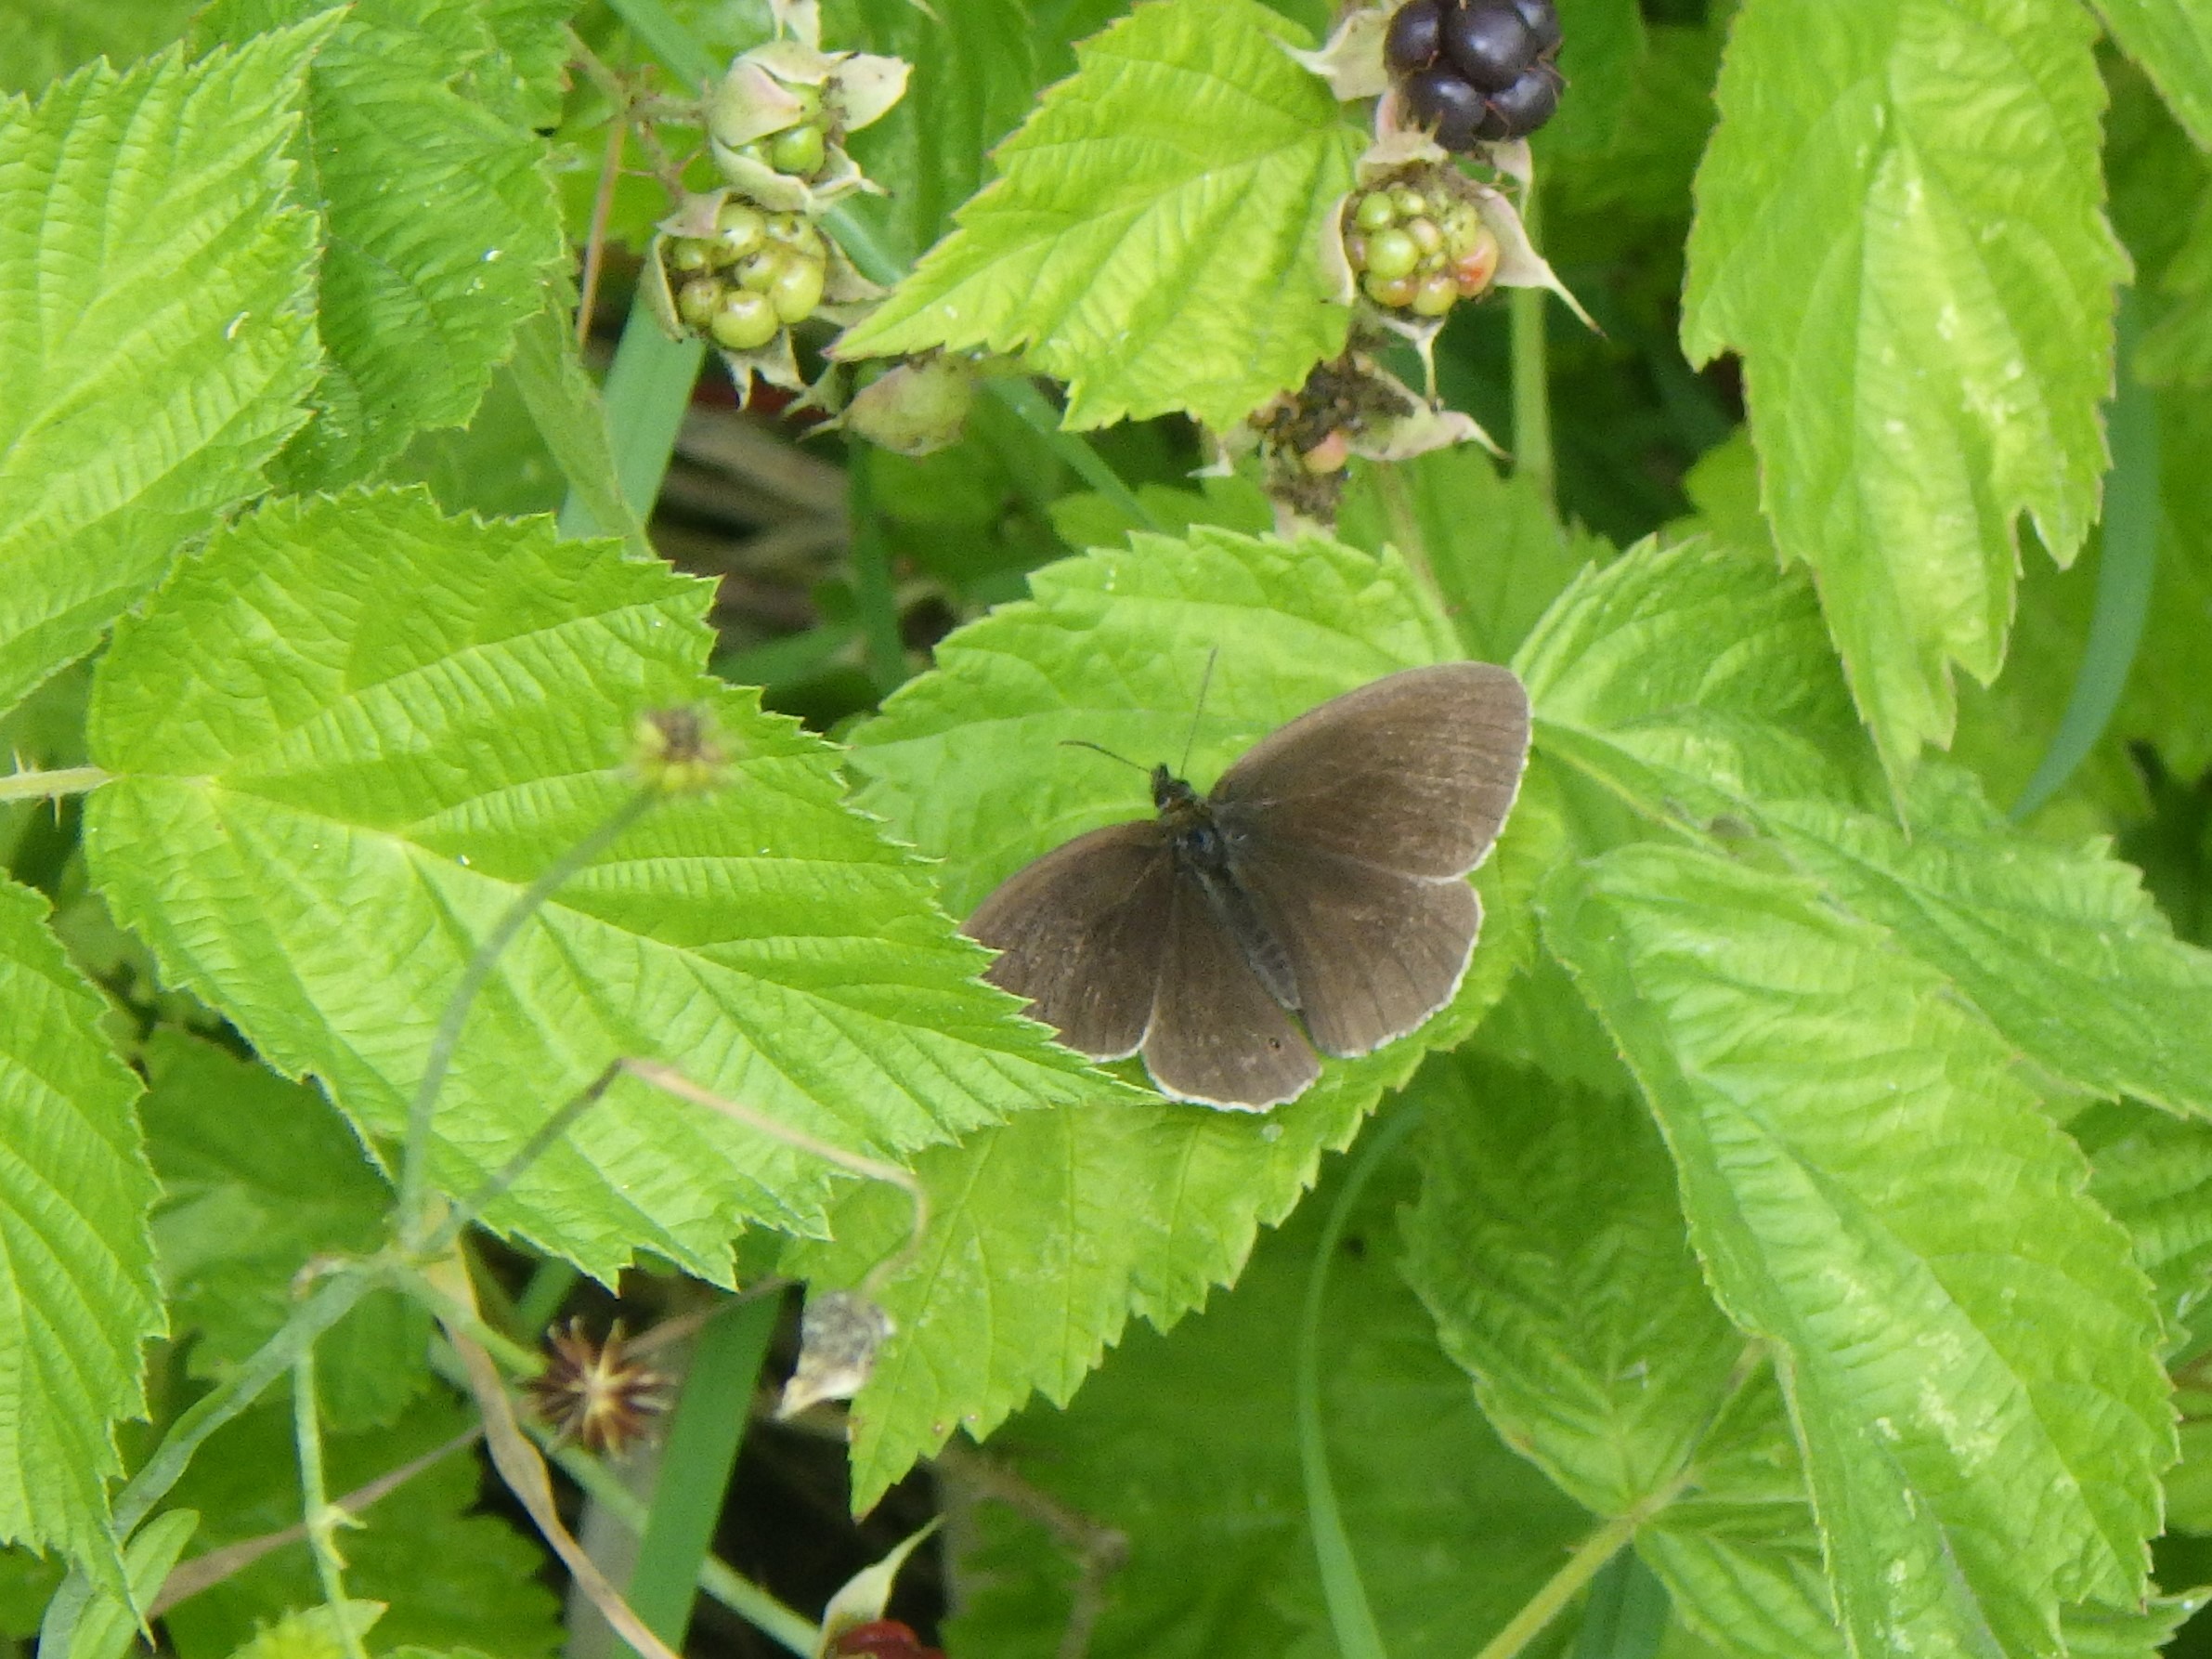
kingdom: Animalia
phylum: Arthropoda
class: Insecta
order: Lepidoptera
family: Nymphalidae
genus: Aphantopus
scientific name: Aphantopus hyperantus
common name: Engrandøje
